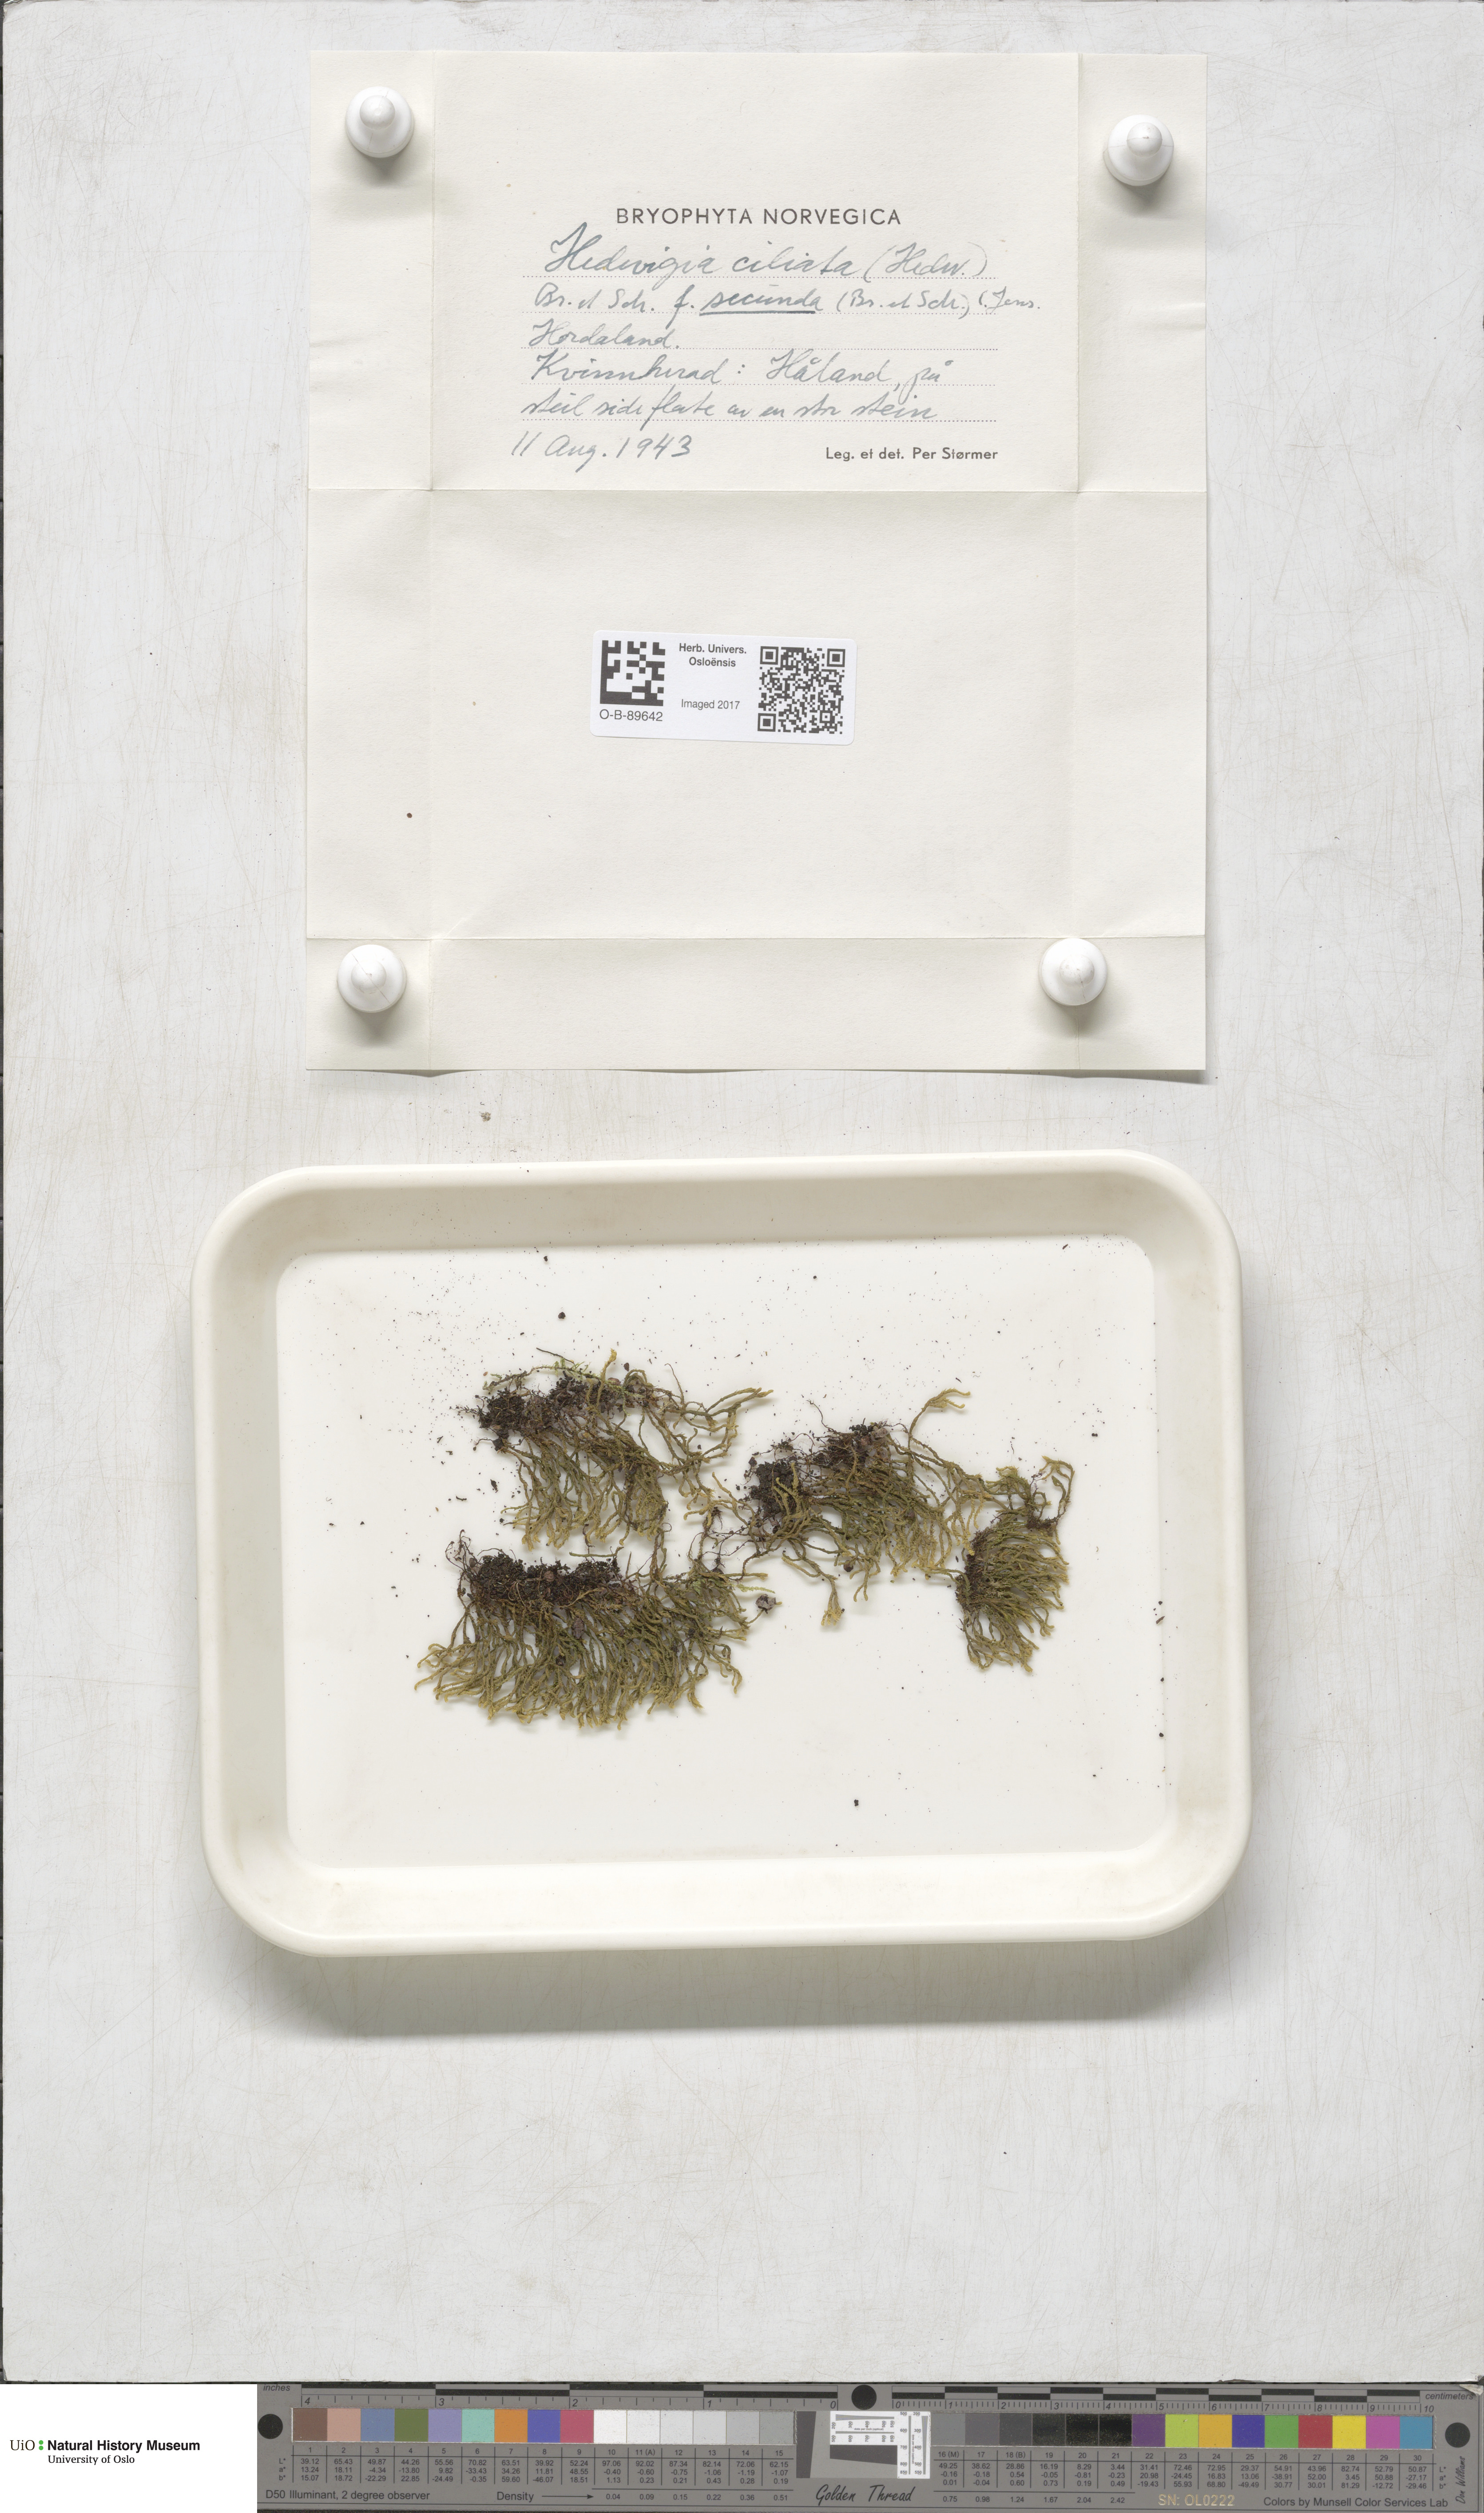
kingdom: Plantae
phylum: Bryophyta
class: Bryopsida
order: Hedwigiales
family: Hedwigiaceae
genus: Hedwigia
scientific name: Hedwigia ciliata
